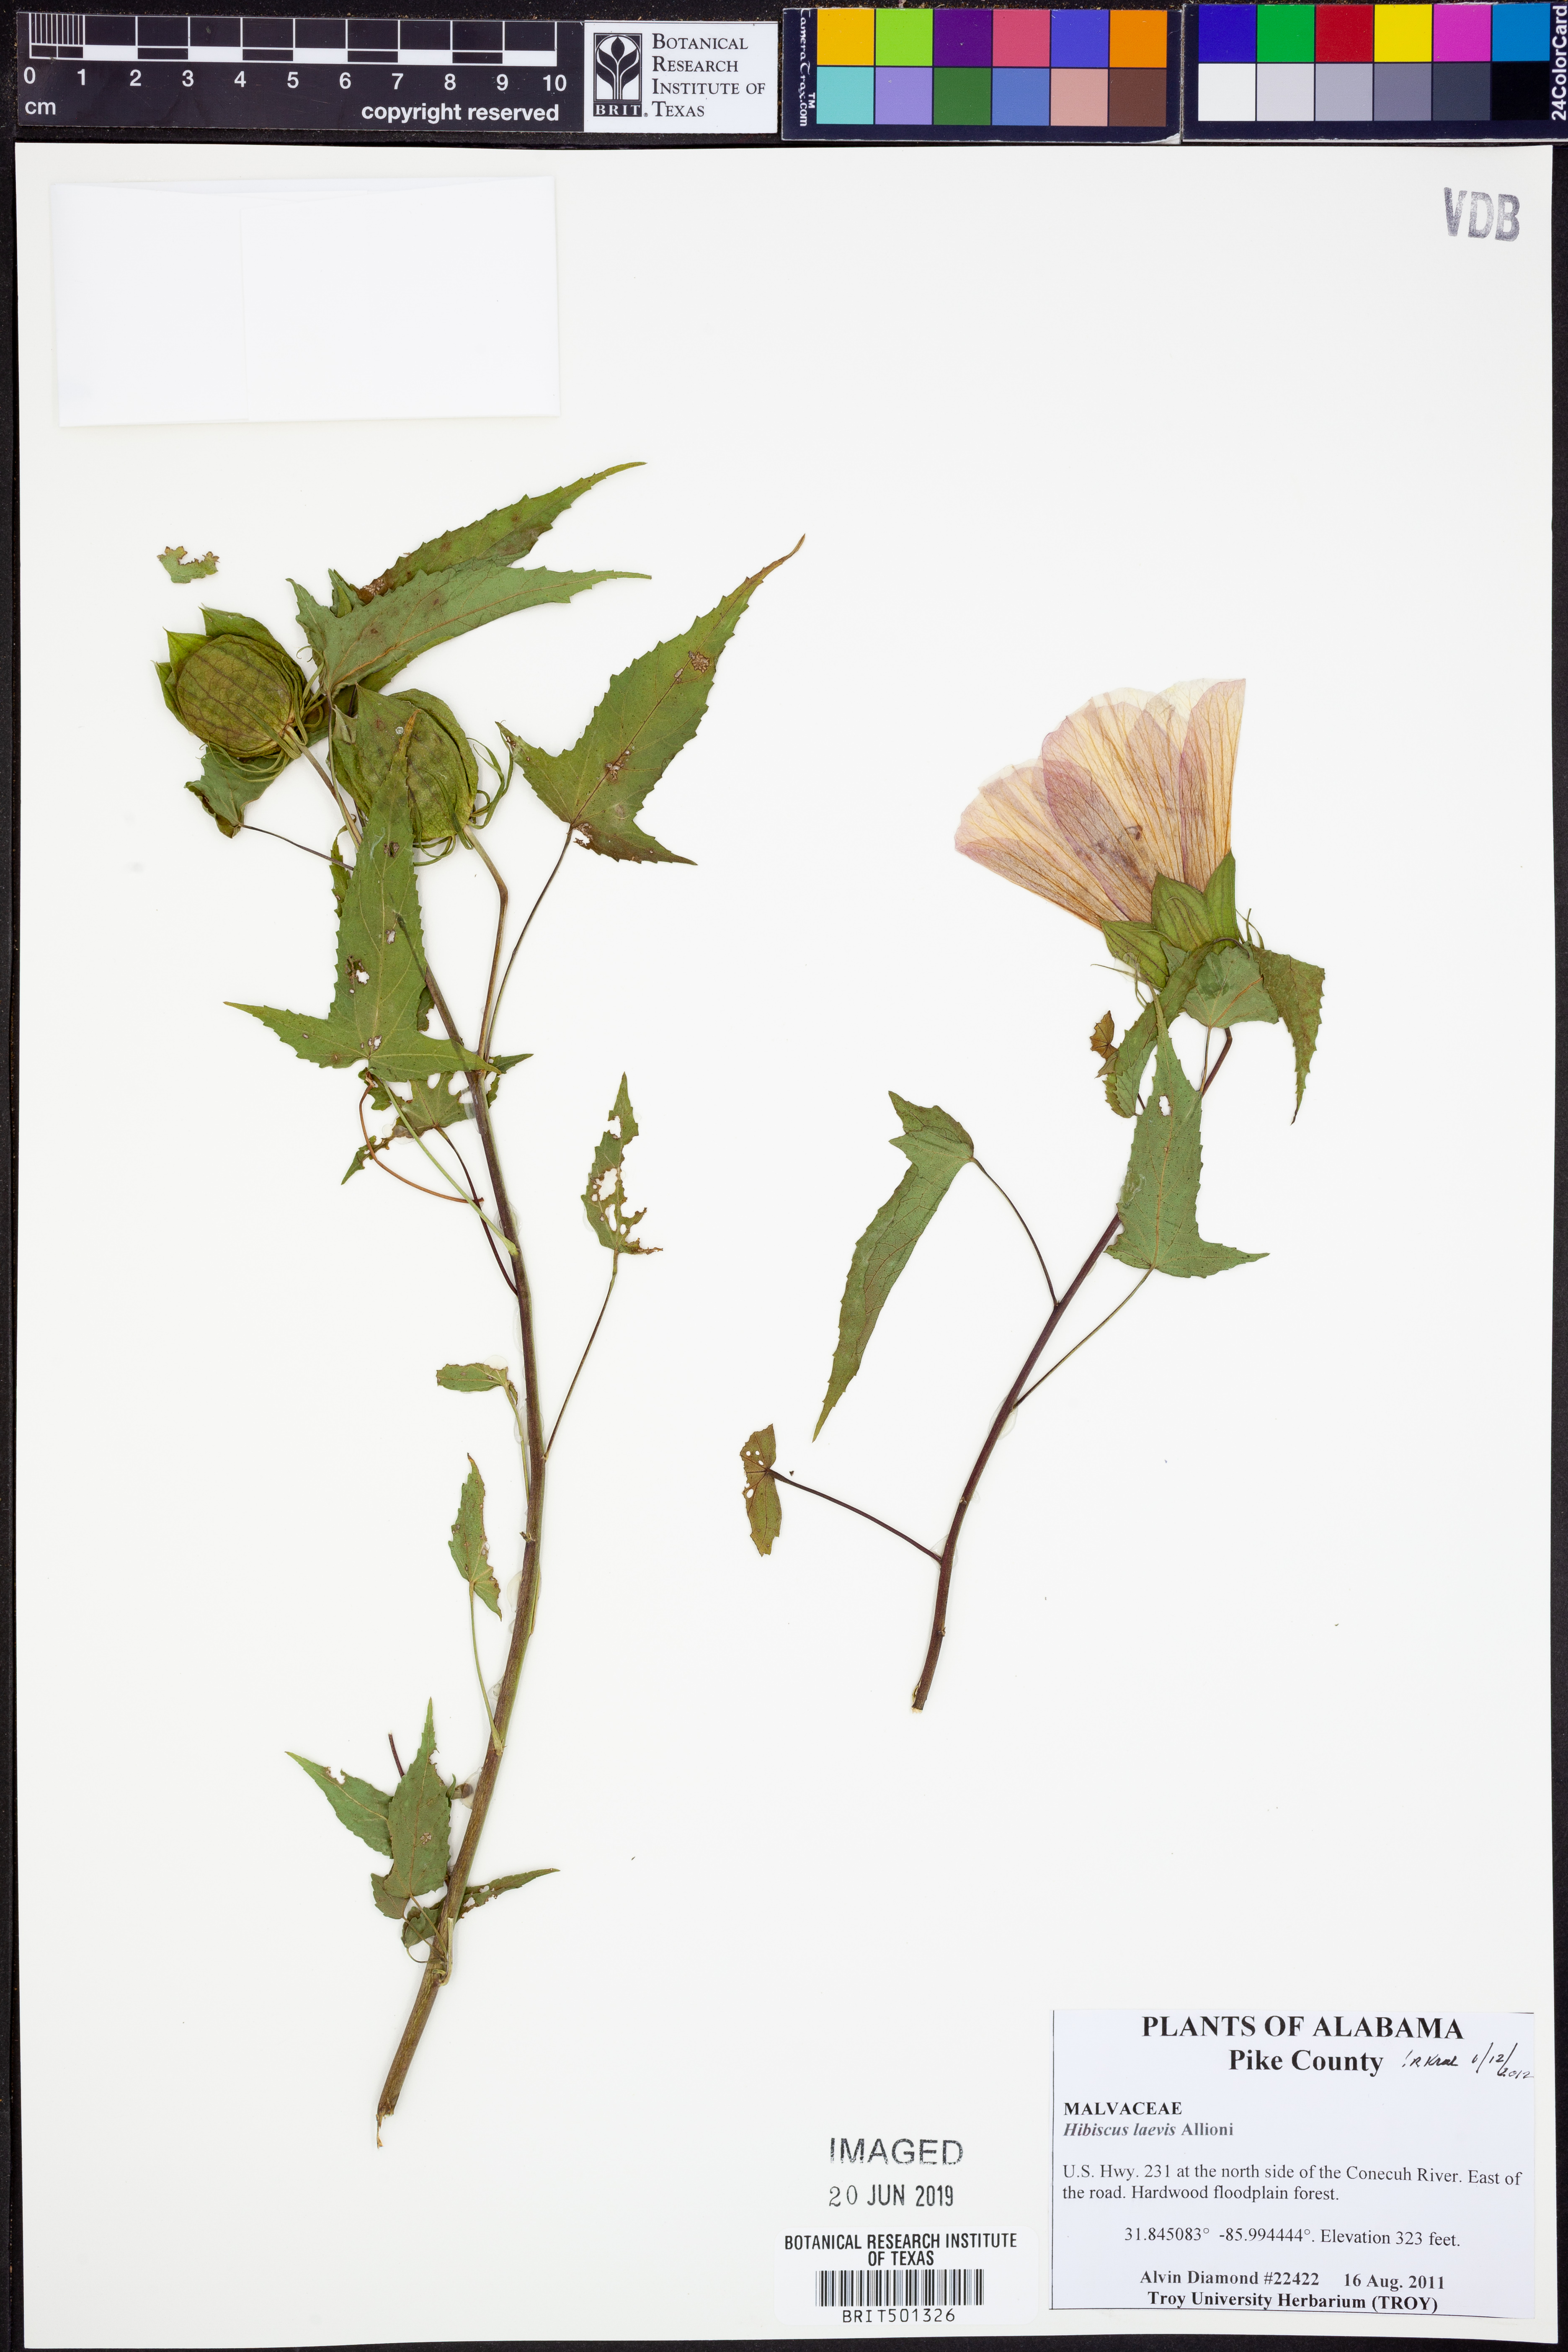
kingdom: Plantae
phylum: Tracheophyta
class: Magnoliopsida
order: Malvales
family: Malvaceae
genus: Hibiscus
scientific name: Hibiscus laevis
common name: Scarlet rose-mallow
